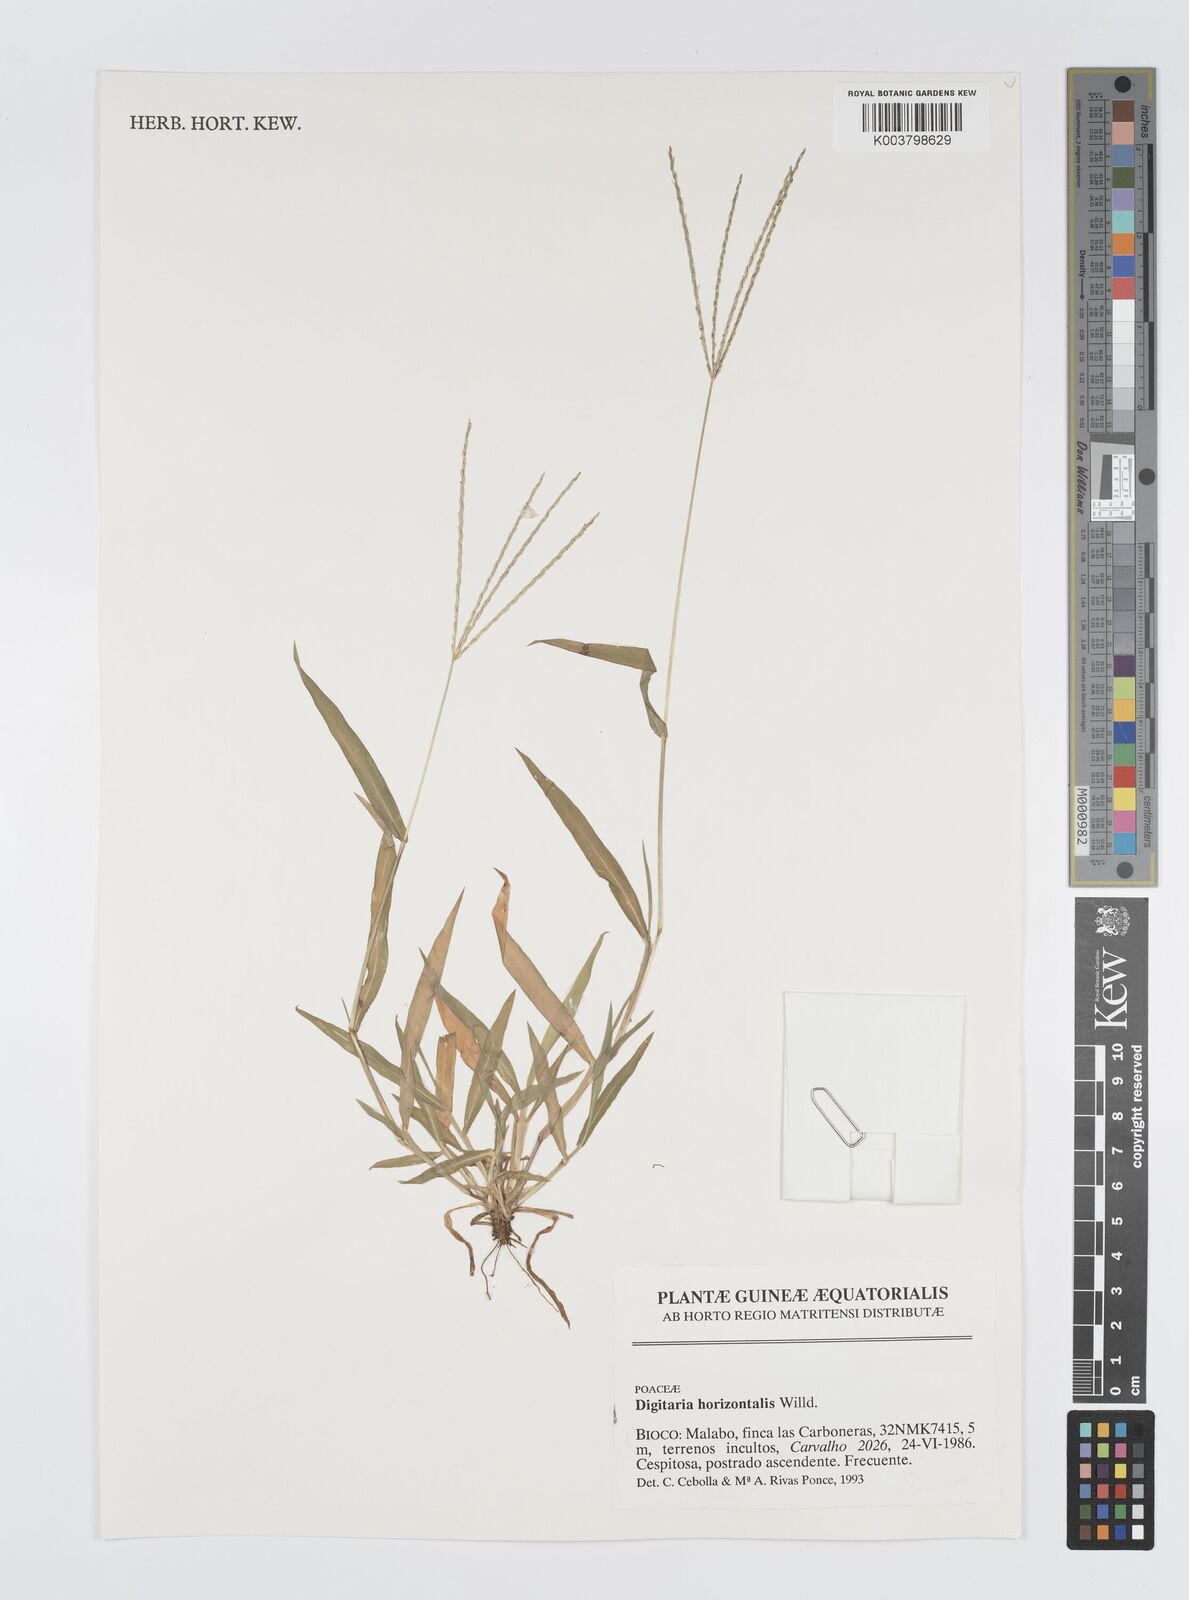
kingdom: Plantae
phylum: Tracheophyta
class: Liliopsida
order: Poales
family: Poaceae
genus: Digitaria
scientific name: Digitaria horizontalis
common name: Jamaican crabgrass
